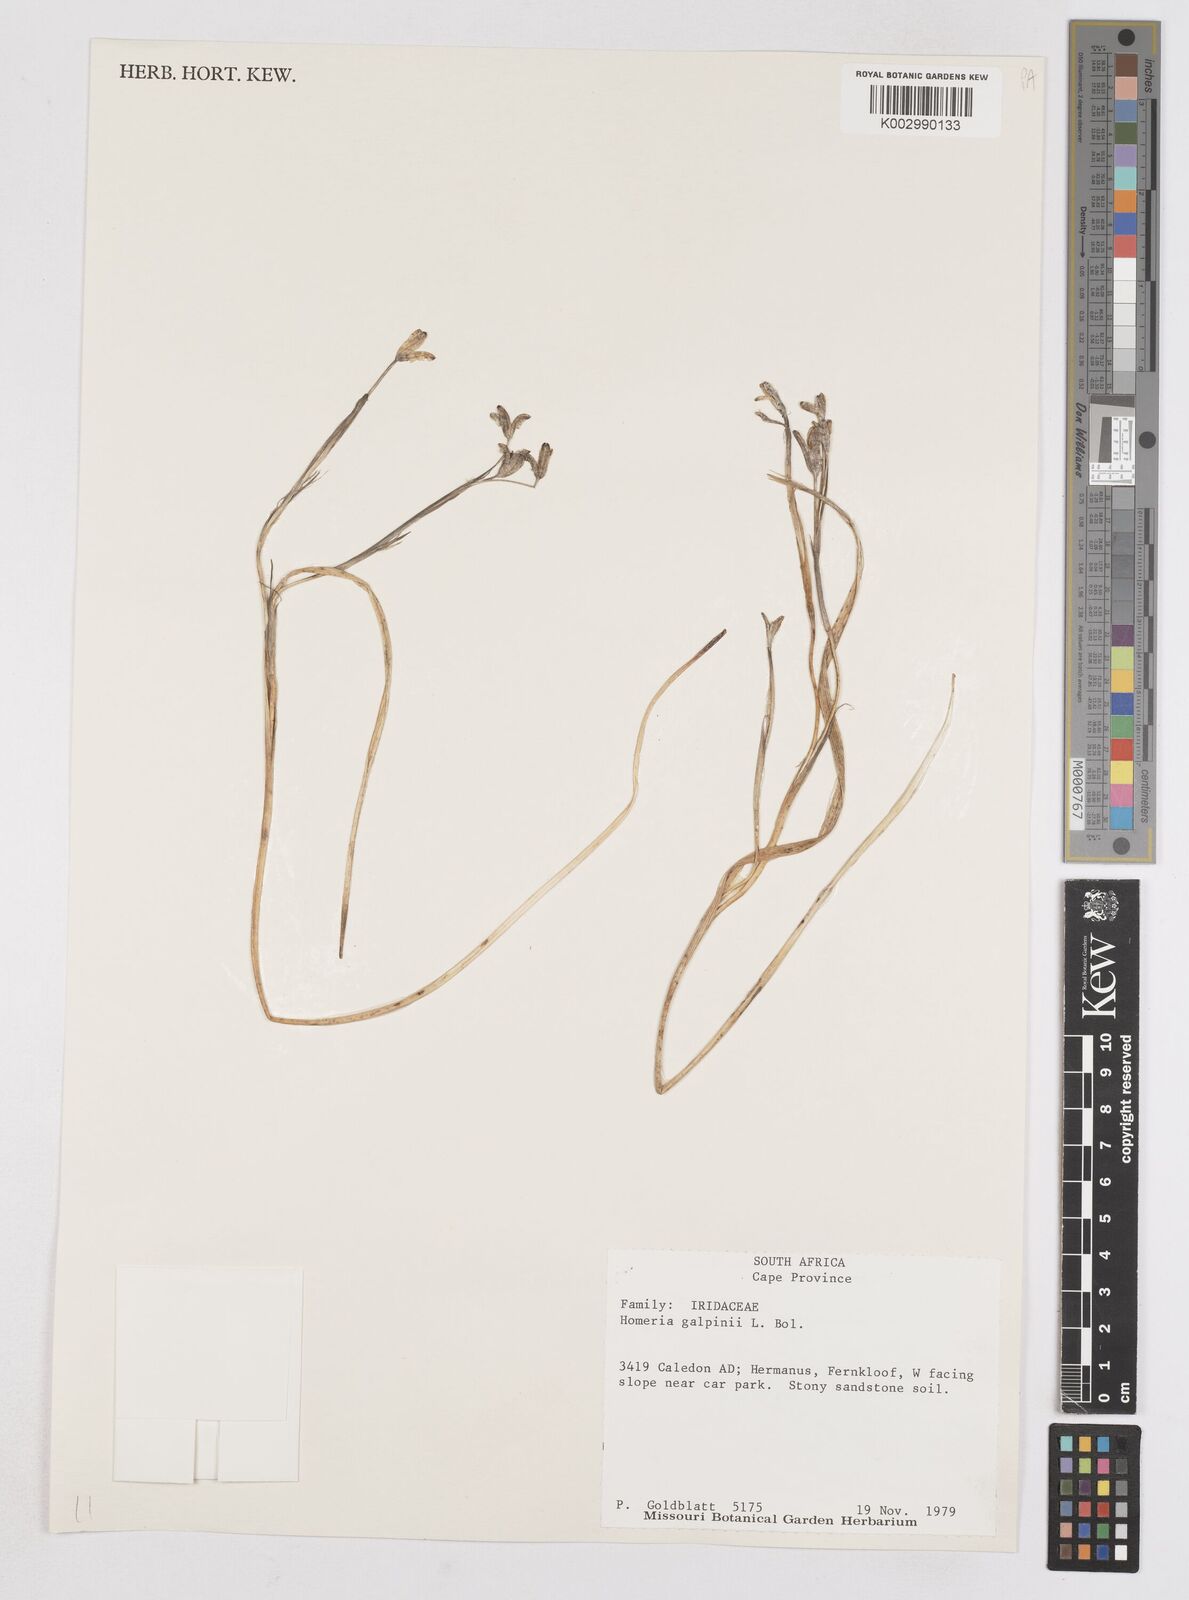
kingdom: Plantae
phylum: Tracheophyta
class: Liliopsida
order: Asparagales
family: Iridaceae
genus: Moraea
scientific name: Moraea
